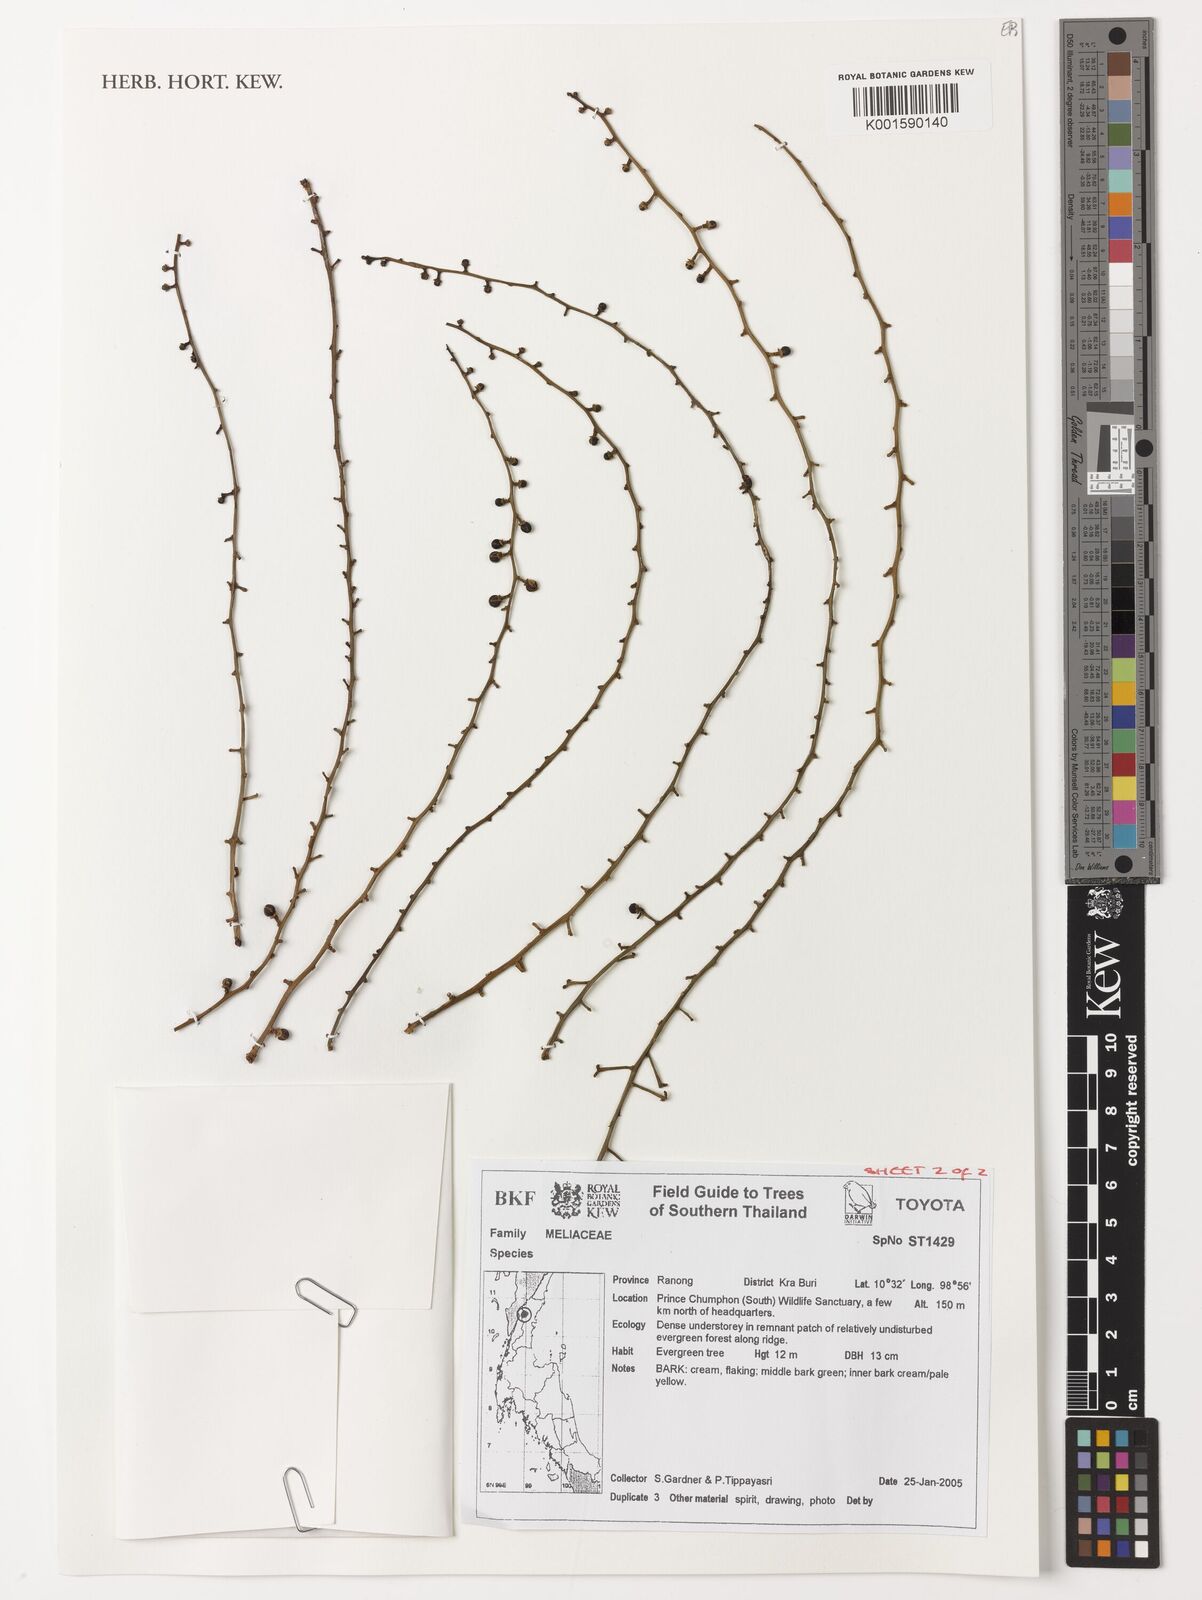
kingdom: Plantae
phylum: Tracheophyta
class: Magnoliopsida
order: Sapindales
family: Meliaceae
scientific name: Meliaceae
